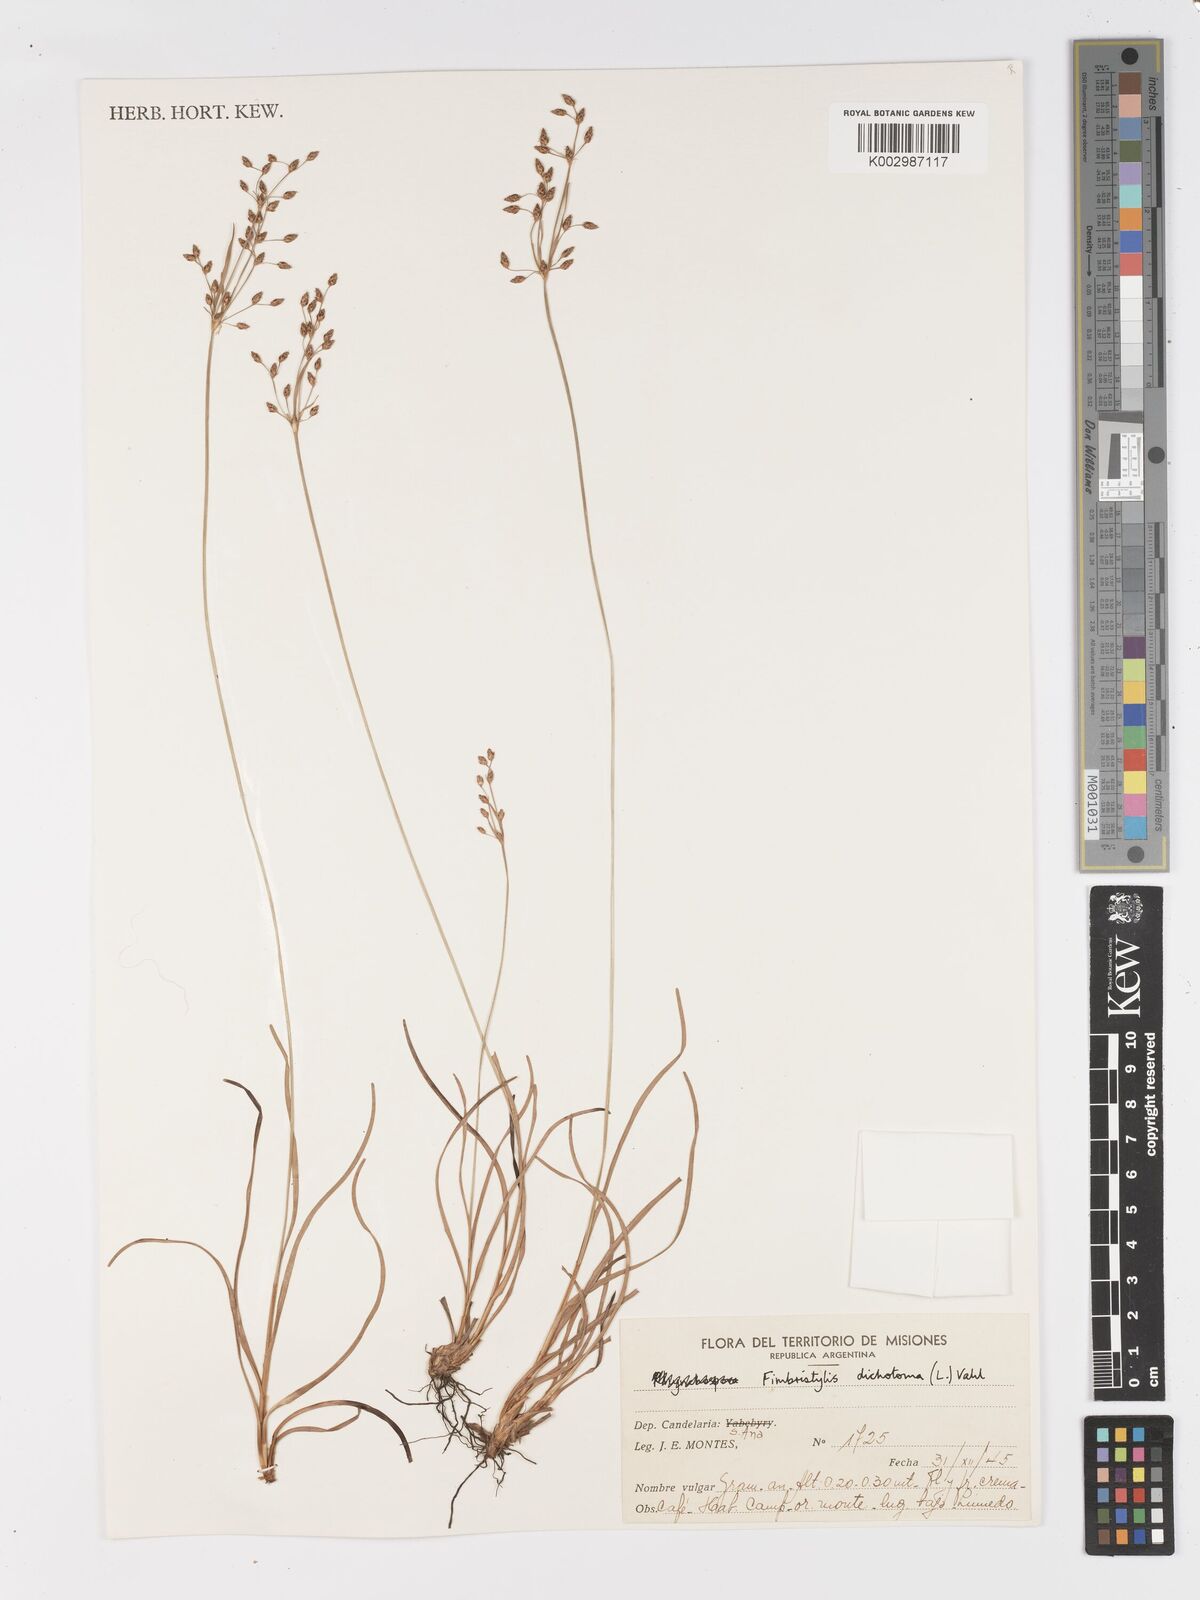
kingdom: Plantae
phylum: Tracheophyta
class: Liliopsida
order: Poales
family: Cyperaceae
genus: Fimbristylis
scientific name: Fimbristylis dichotoma
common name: Forked fimbry
